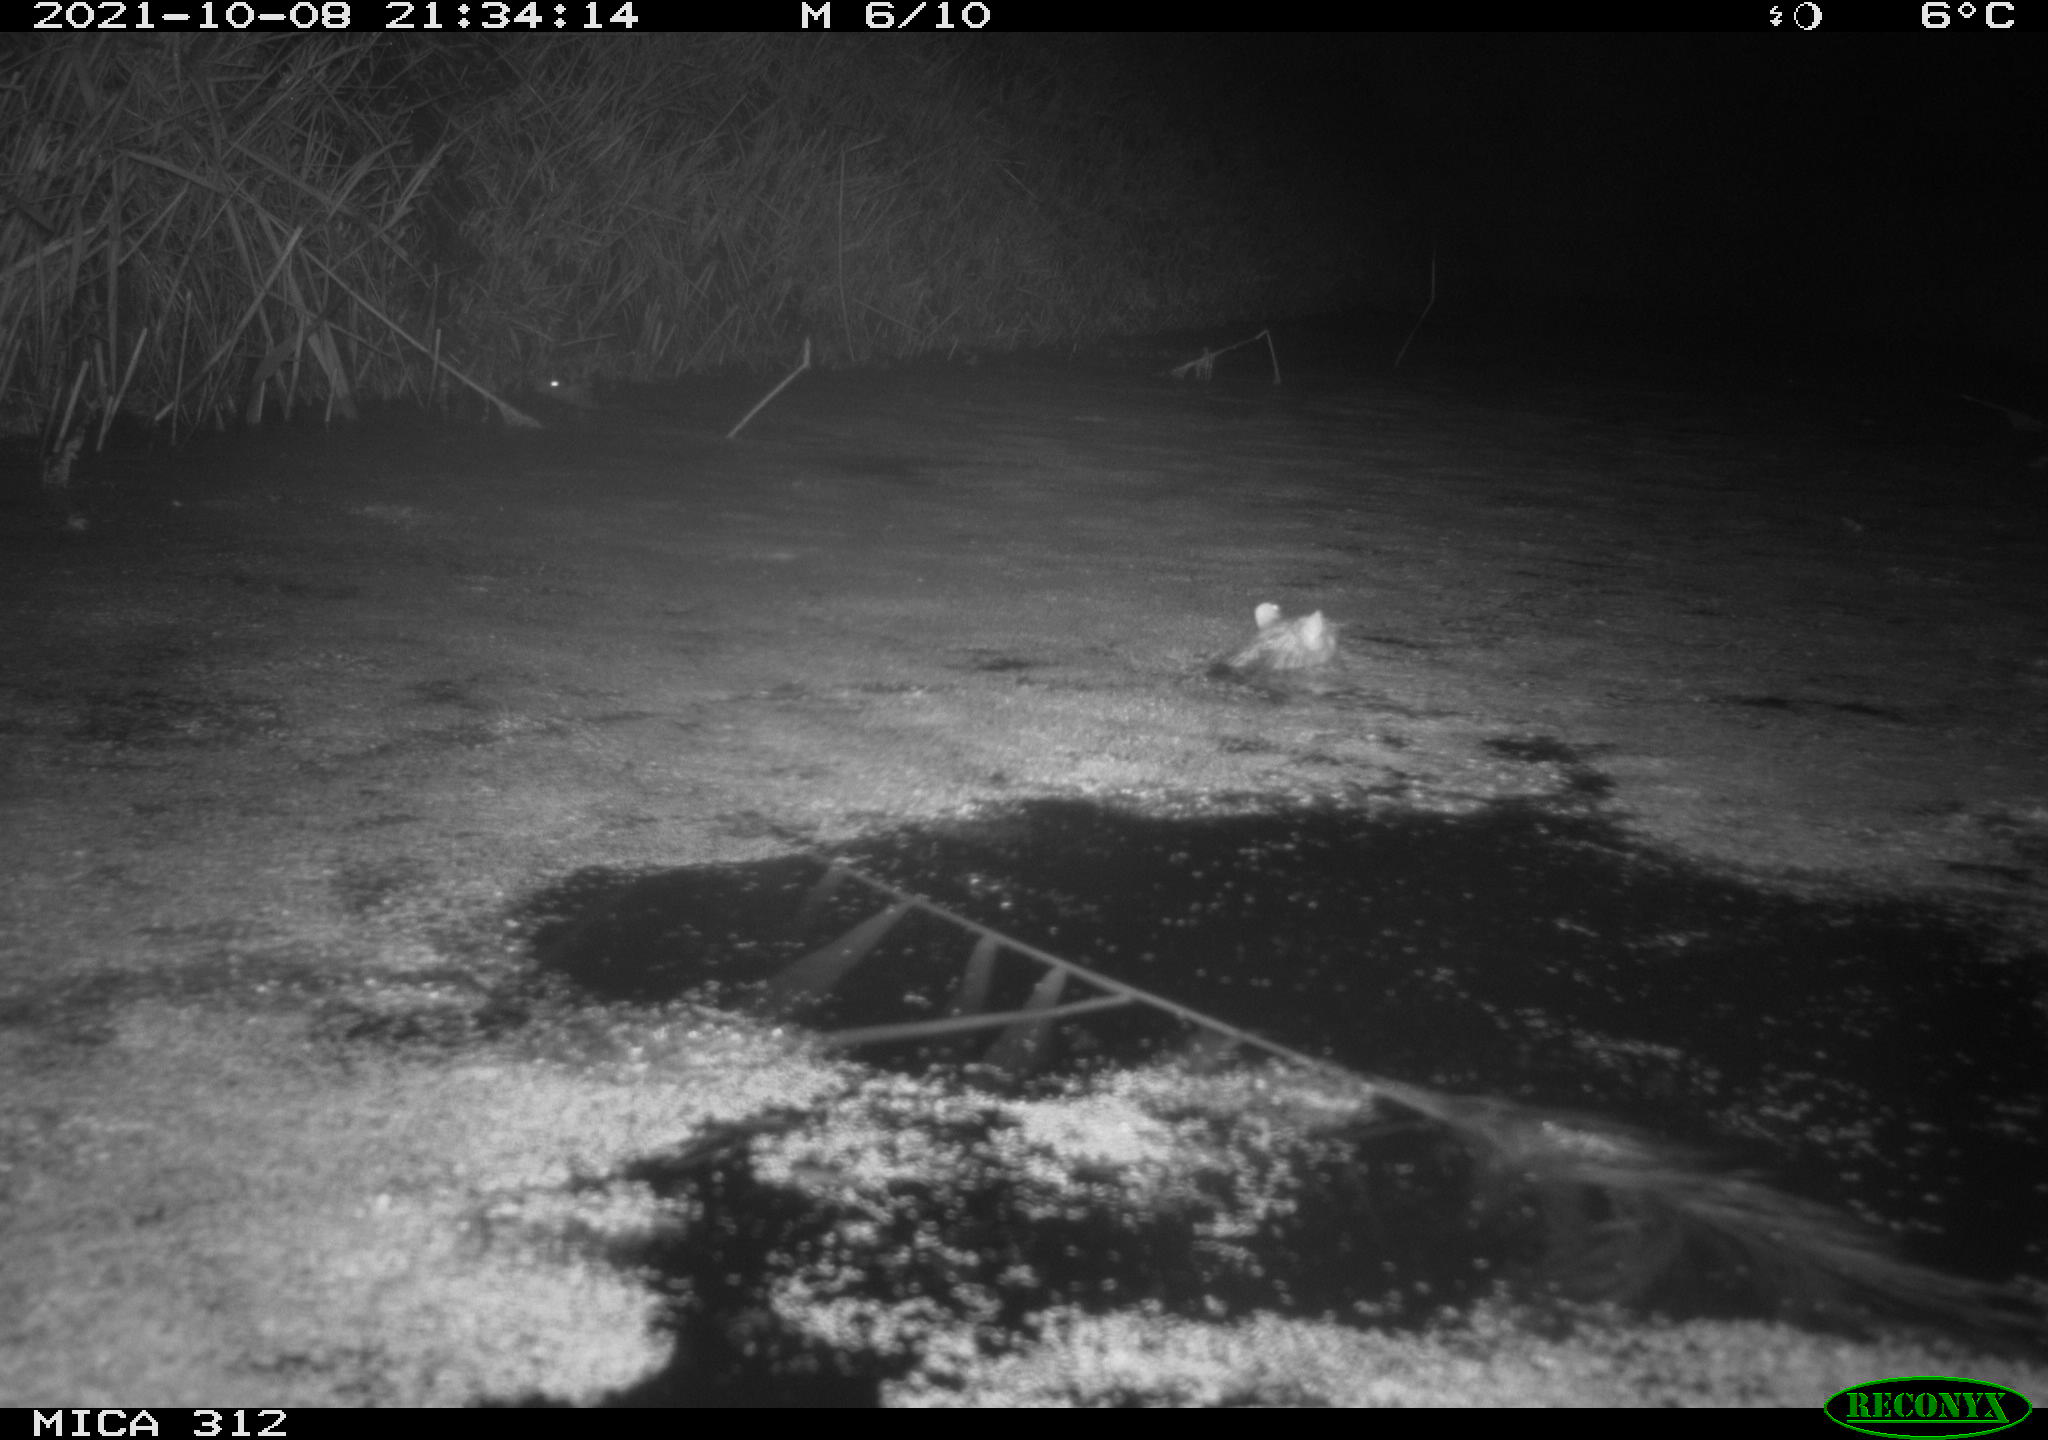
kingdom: Animalia
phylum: Chordata
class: Mammalia
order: Rodentia
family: Muridae
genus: Rattus
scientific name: Rattus norvegicus
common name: Brown rat
